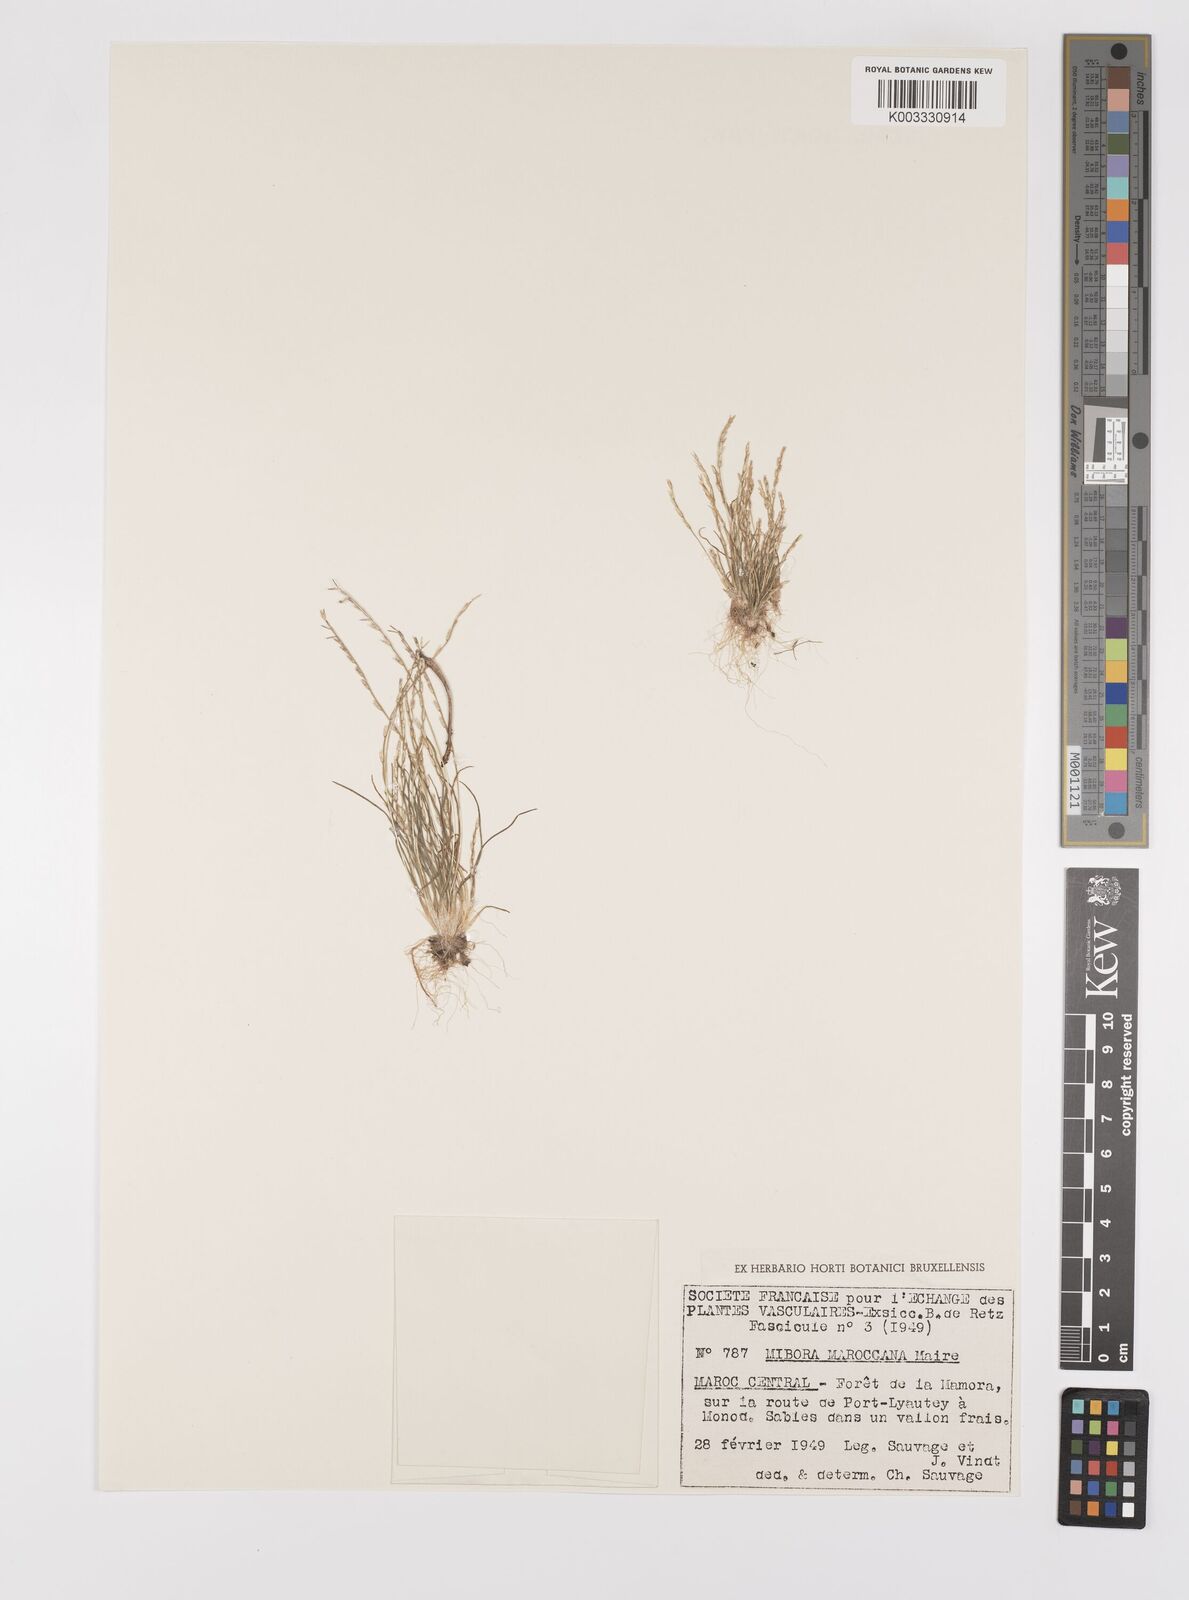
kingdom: Plantae
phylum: Tracheophyta
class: Liliopsida
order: Poales
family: Poaceae
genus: Mibora
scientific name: Mibora maroccana
